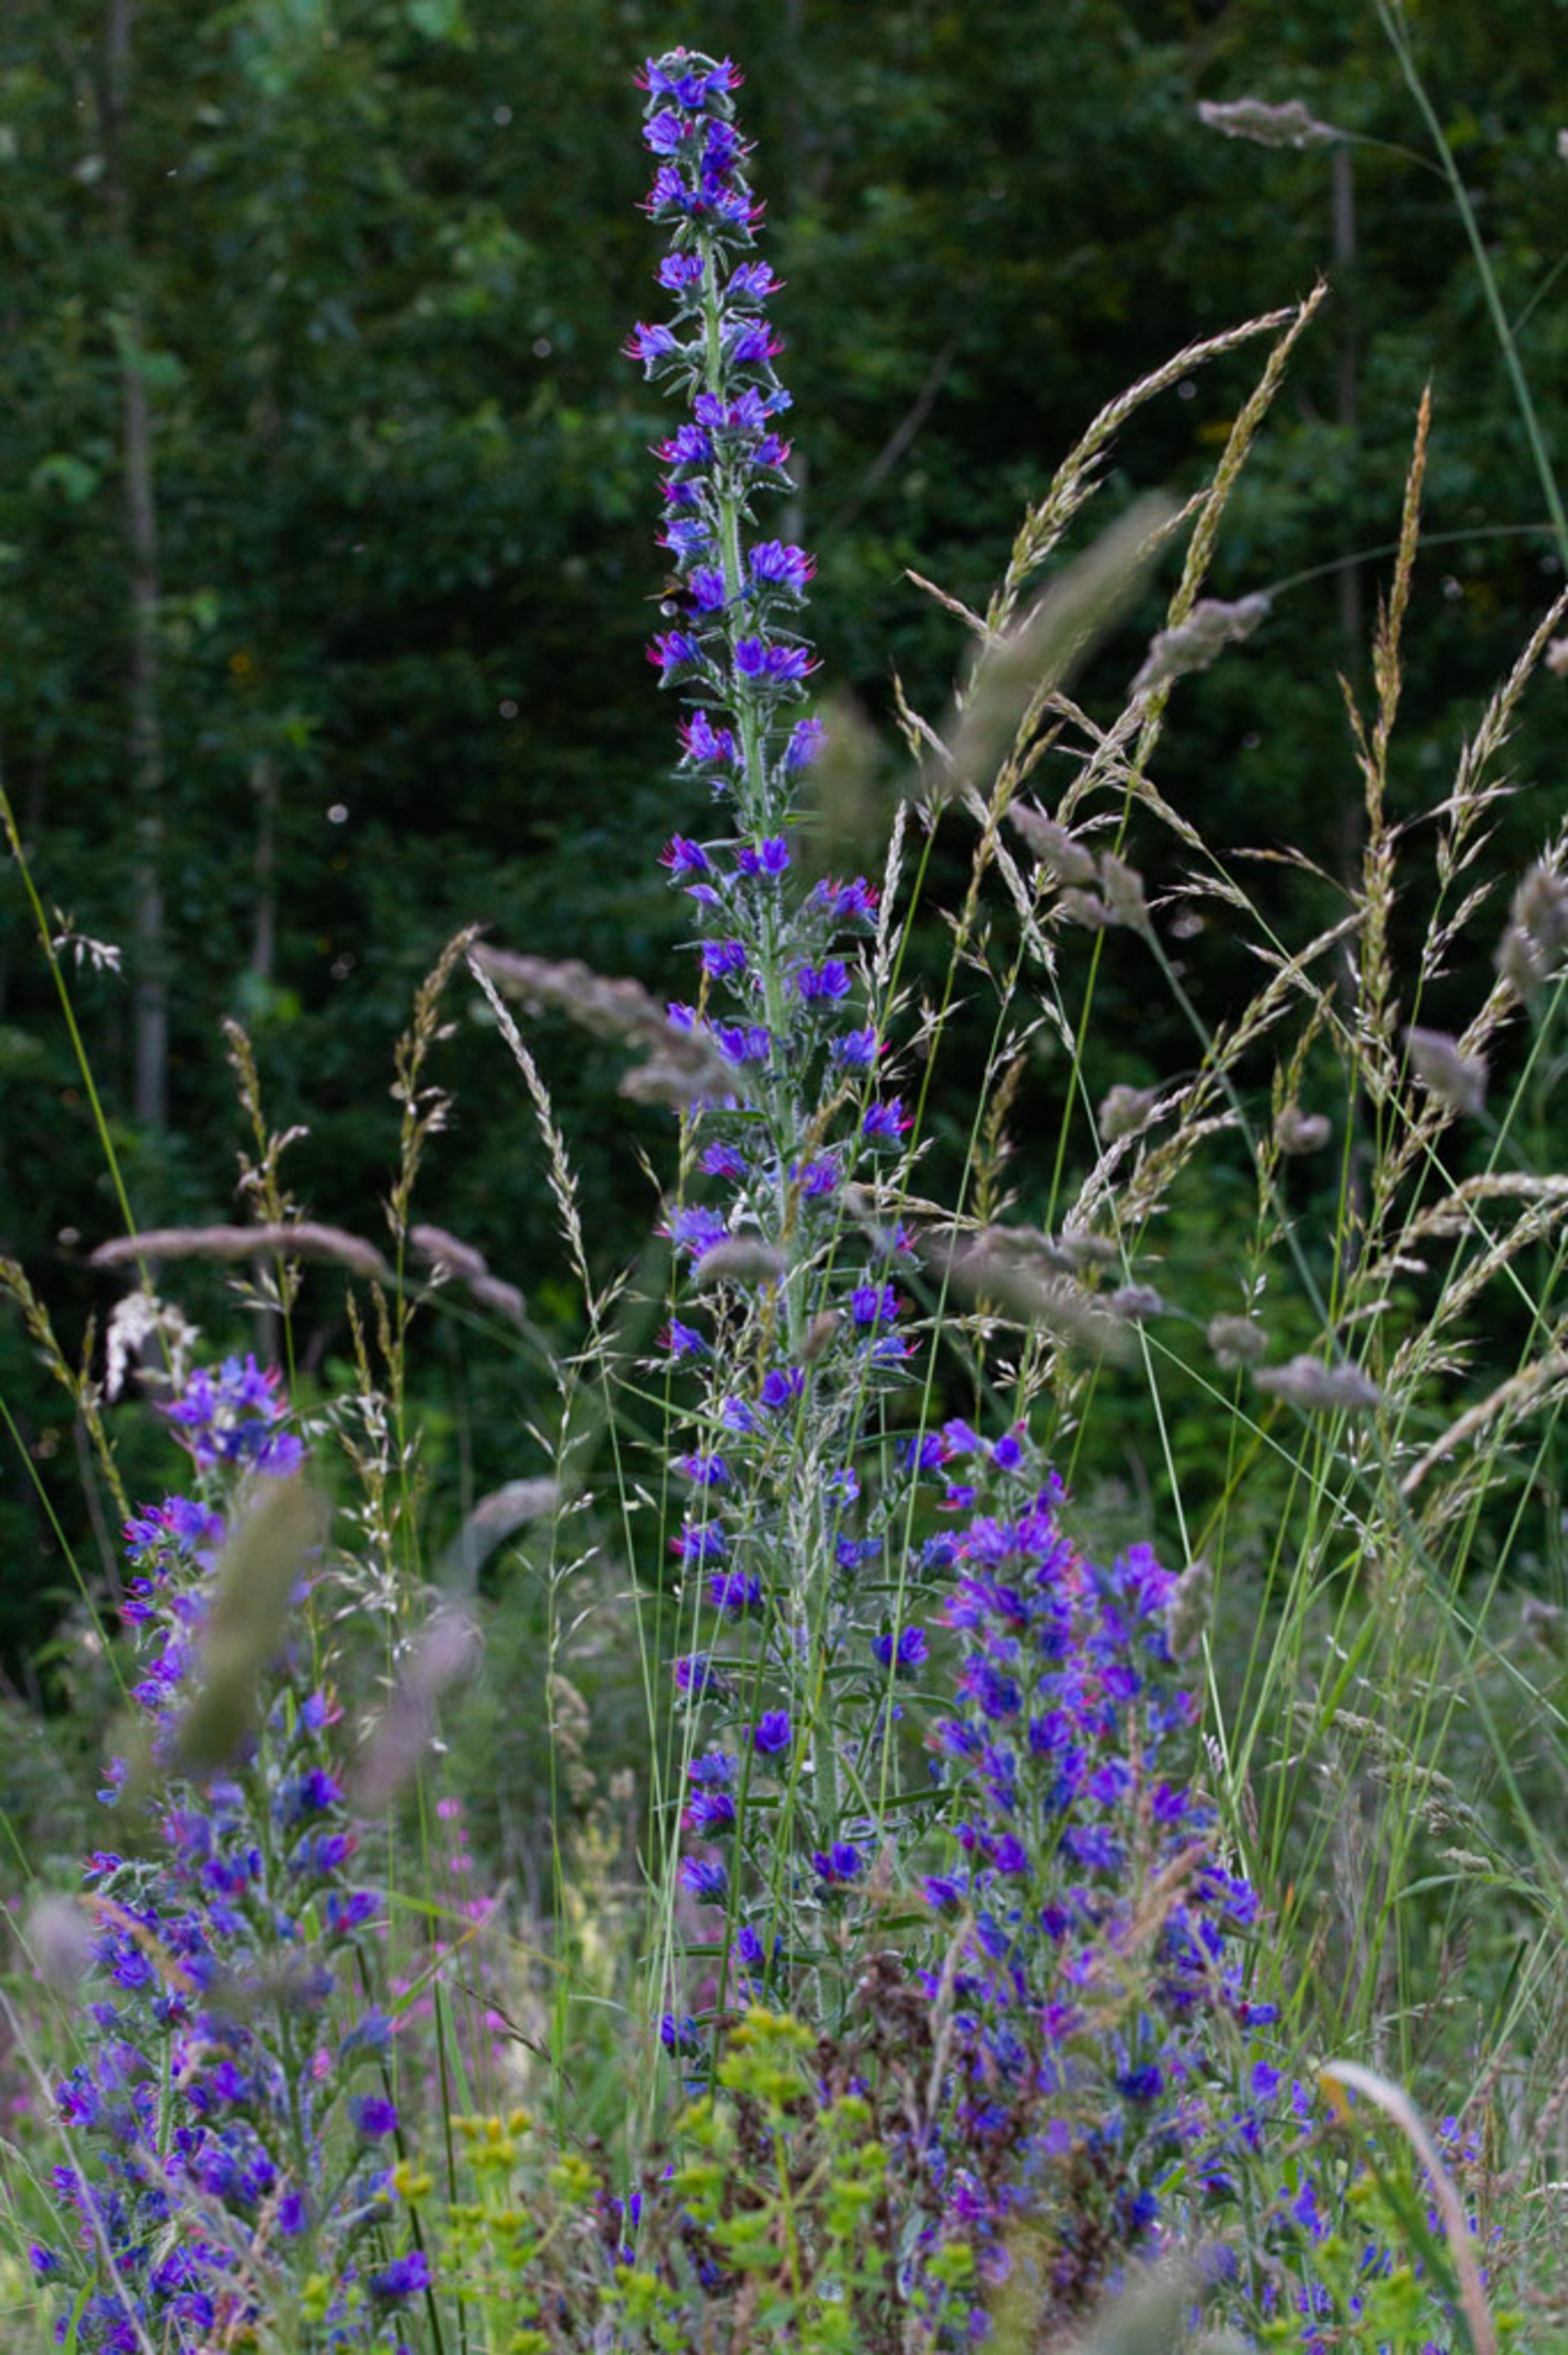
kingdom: Plantae
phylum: Tracheophyta
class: Magnoliopsida
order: Boraginales
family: Boraginaceae
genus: Echium
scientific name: Echium vulgare
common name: Slangehoved
